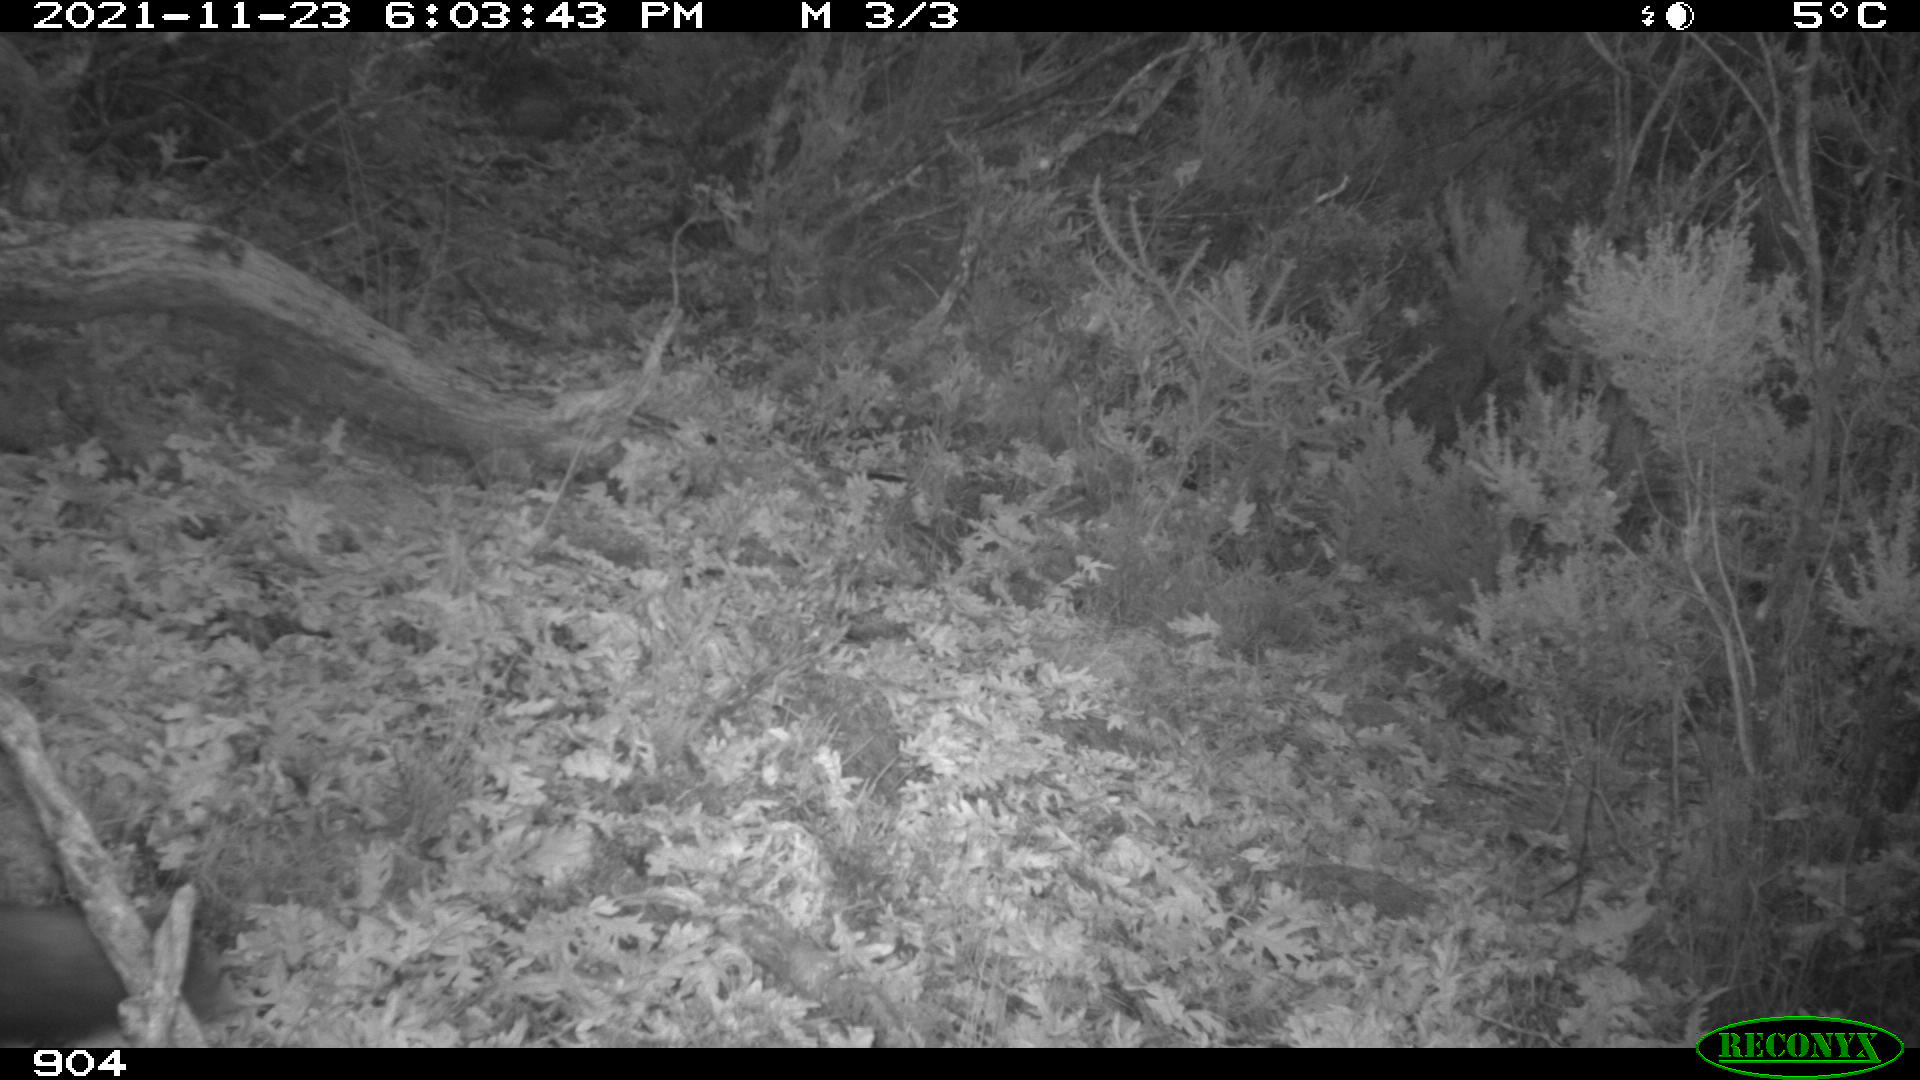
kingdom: Animalia
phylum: Chordata
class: Mammalia
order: Carnivora
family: Canidae
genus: Vulpes
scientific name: Vulpes vulpes
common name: Red fox
